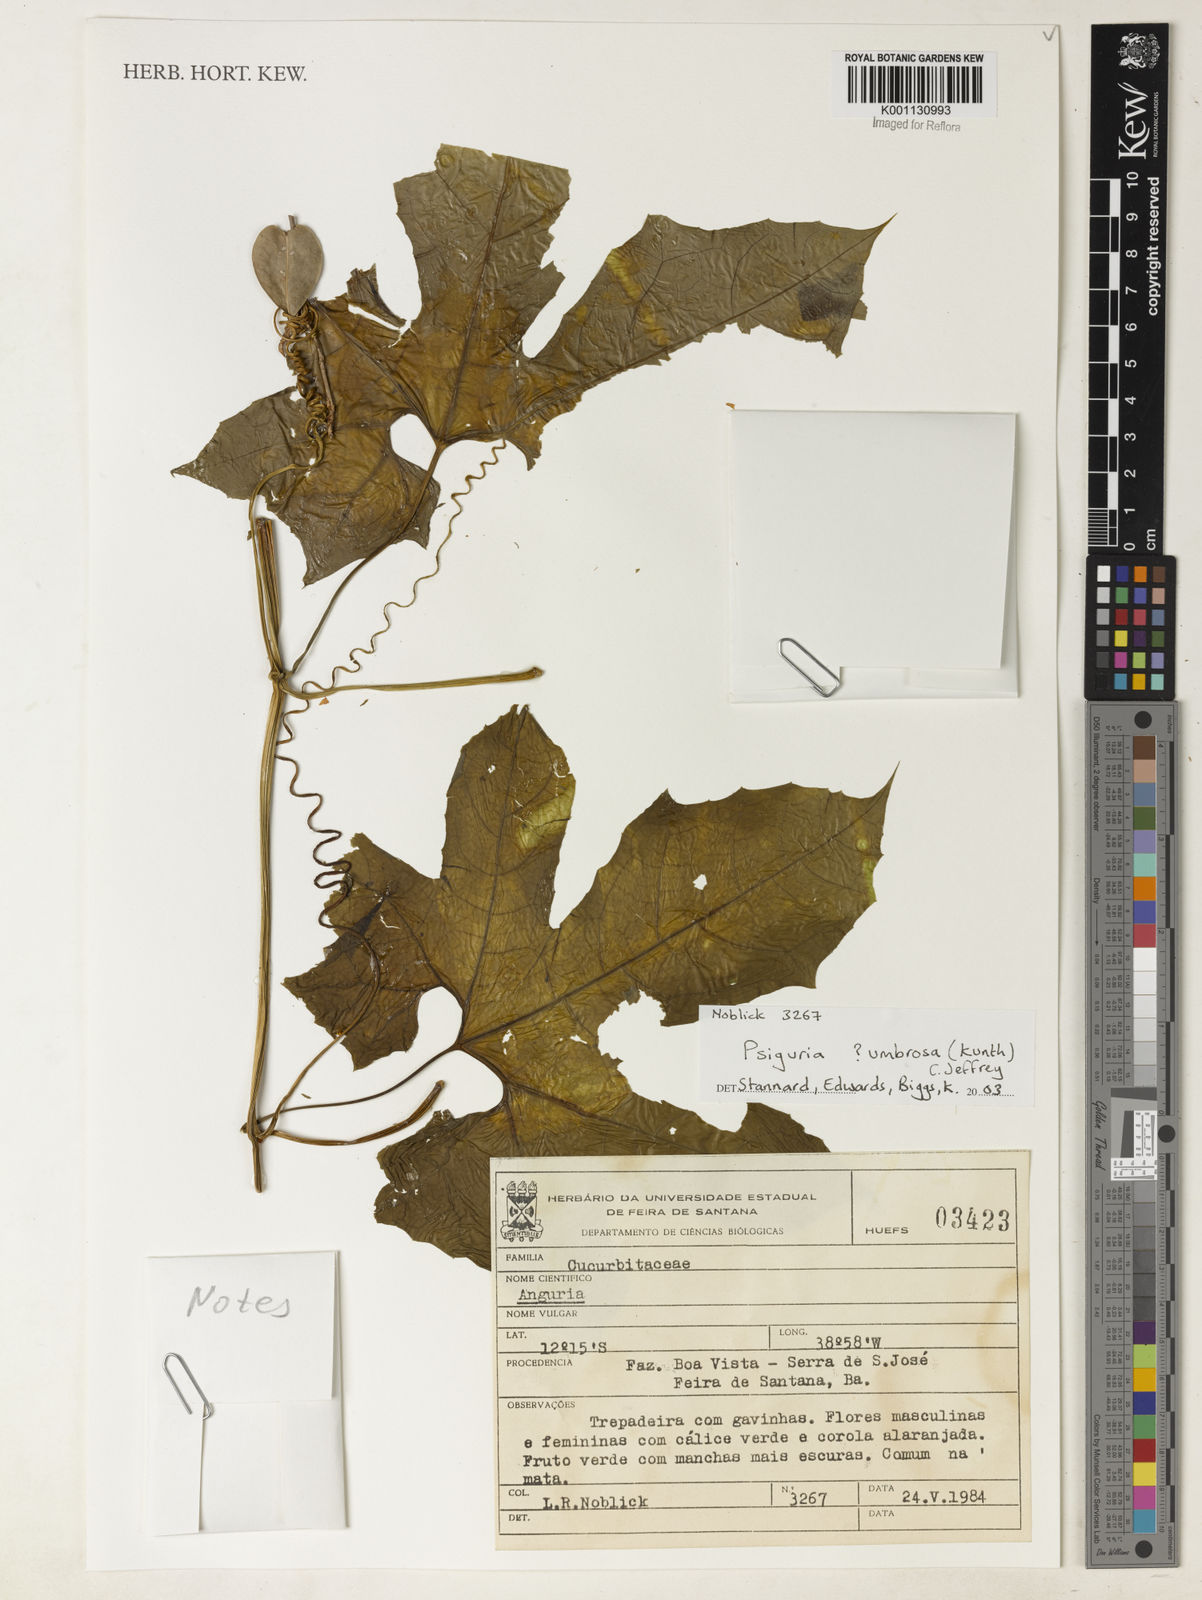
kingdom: Plantae
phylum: Tracheophyta
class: Magnoliopsida
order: Cucurbitales
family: Cucurbitaceae
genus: Psiguria
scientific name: Psiguria umbrosa
